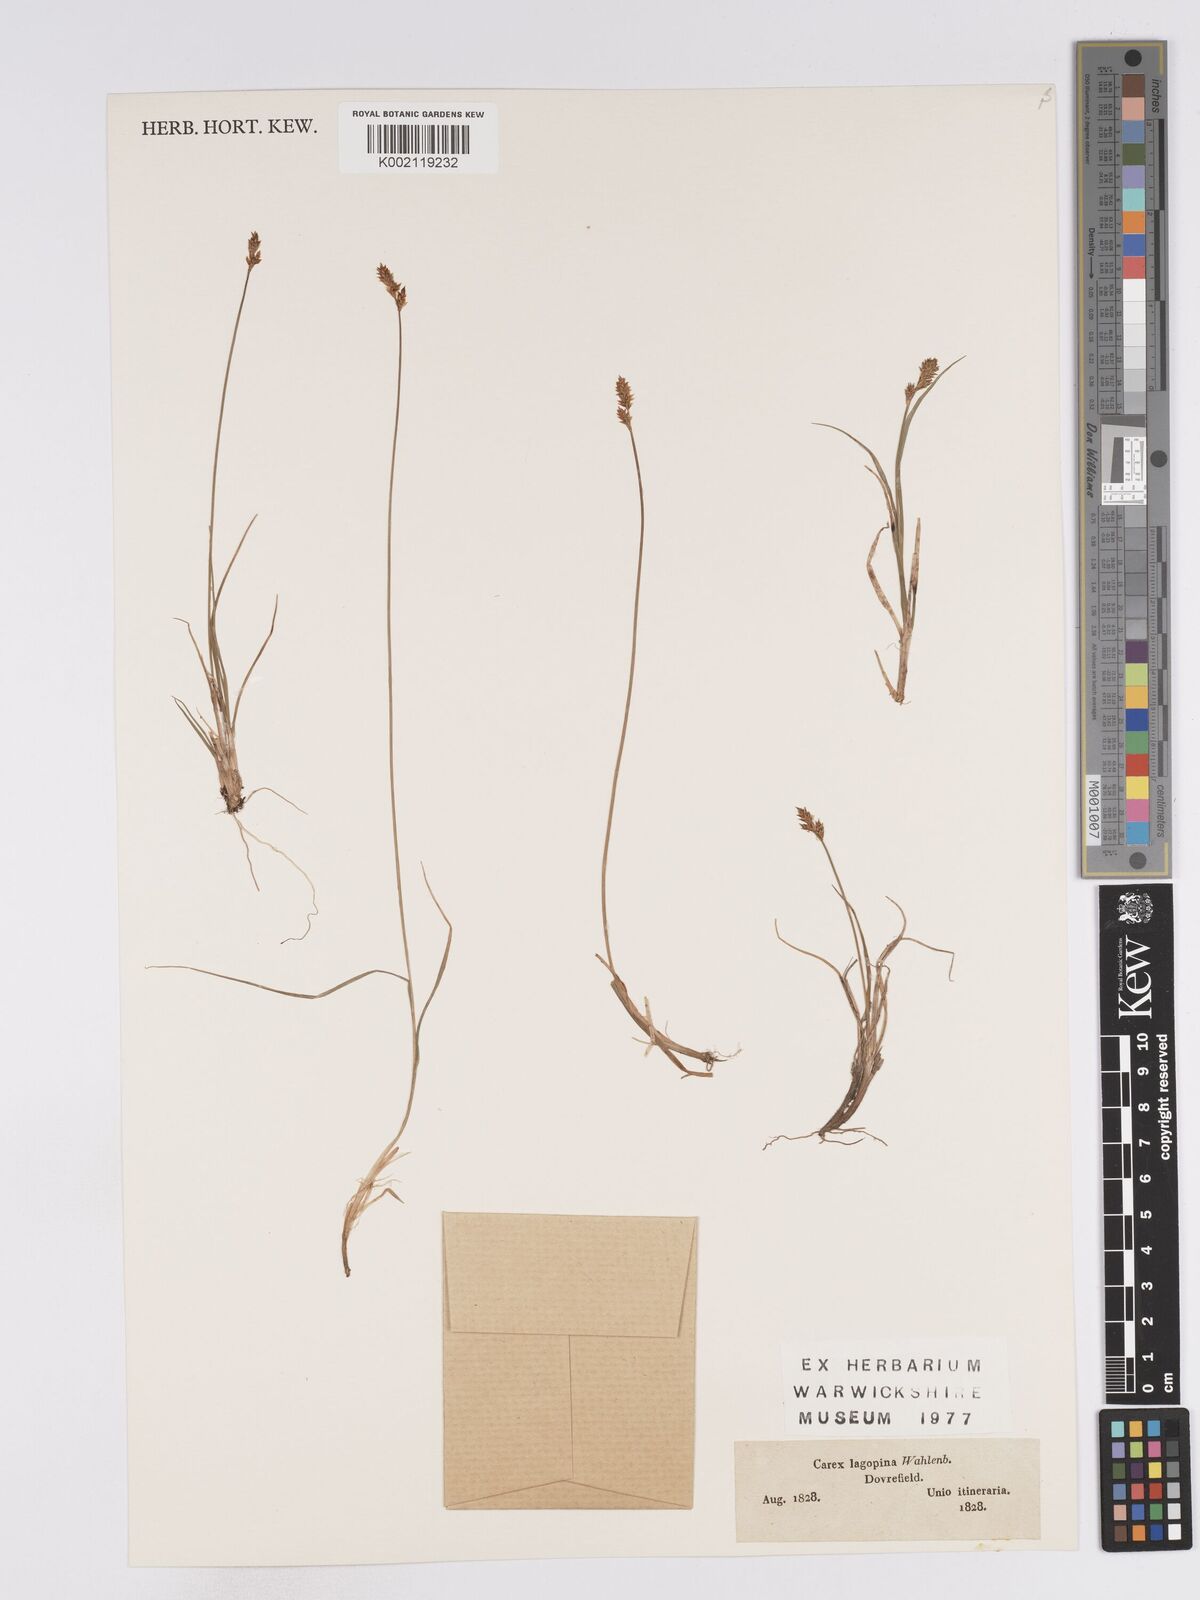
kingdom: Plantae
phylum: Tracheophyta
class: Liliopsida
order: Poales
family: Cyperaceae
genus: Carex
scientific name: Carex lachenalii
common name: Hare's-foot sedge
